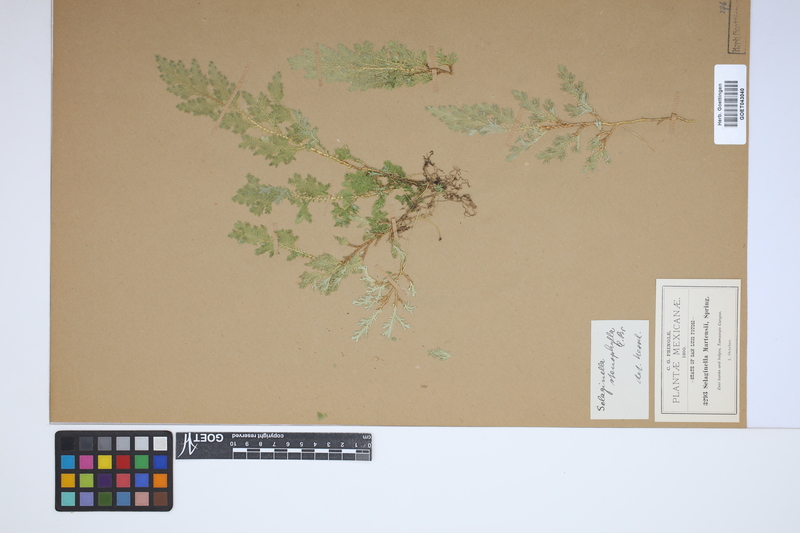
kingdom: Plantae
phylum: Tracheophyta
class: Lycopodiopsida
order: Selaginellales
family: Selaginellaceae
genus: Selaginella
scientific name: Selaginella stenophylla
